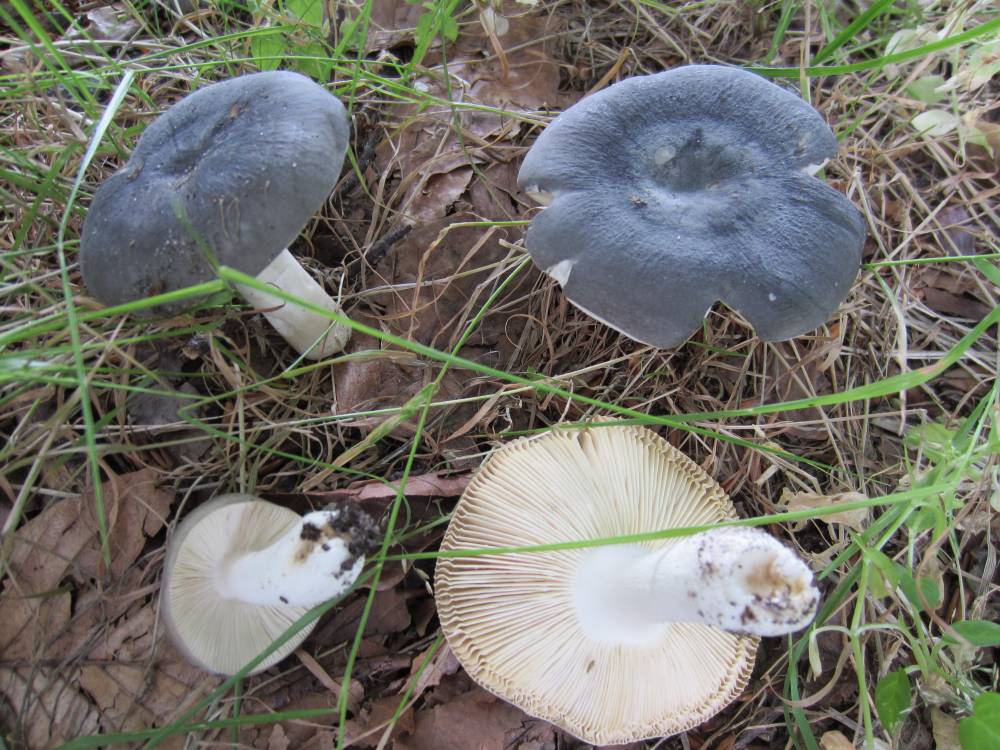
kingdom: Fungi
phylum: Basidiomycota
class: Agaricomycetes
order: Russulales
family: Russulaceae
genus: Russula
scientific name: Russula parazurea
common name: blågrå skørhat
